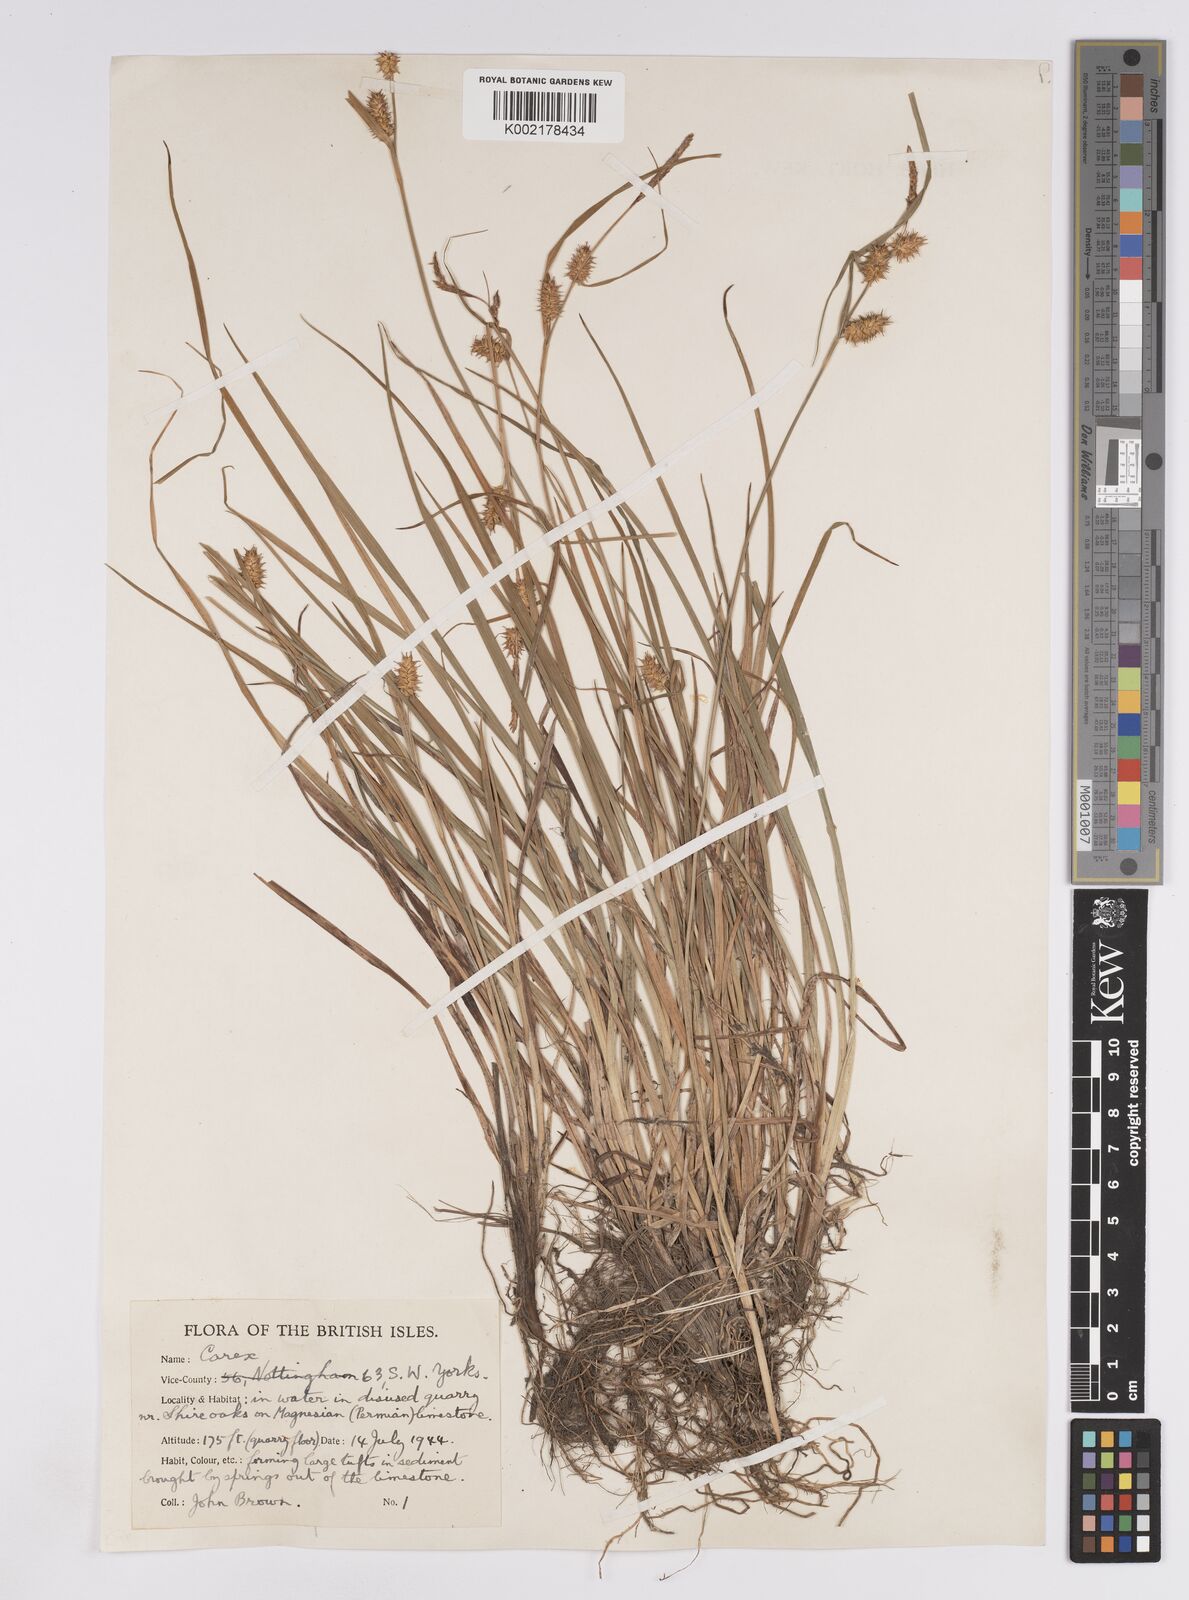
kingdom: Plantae
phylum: Tracheophyta
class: Liliopsida
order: Poales
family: Cyperaceae
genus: Carex
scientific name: Carex lepidocarpa
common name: Long-stalked yellow-sedge
